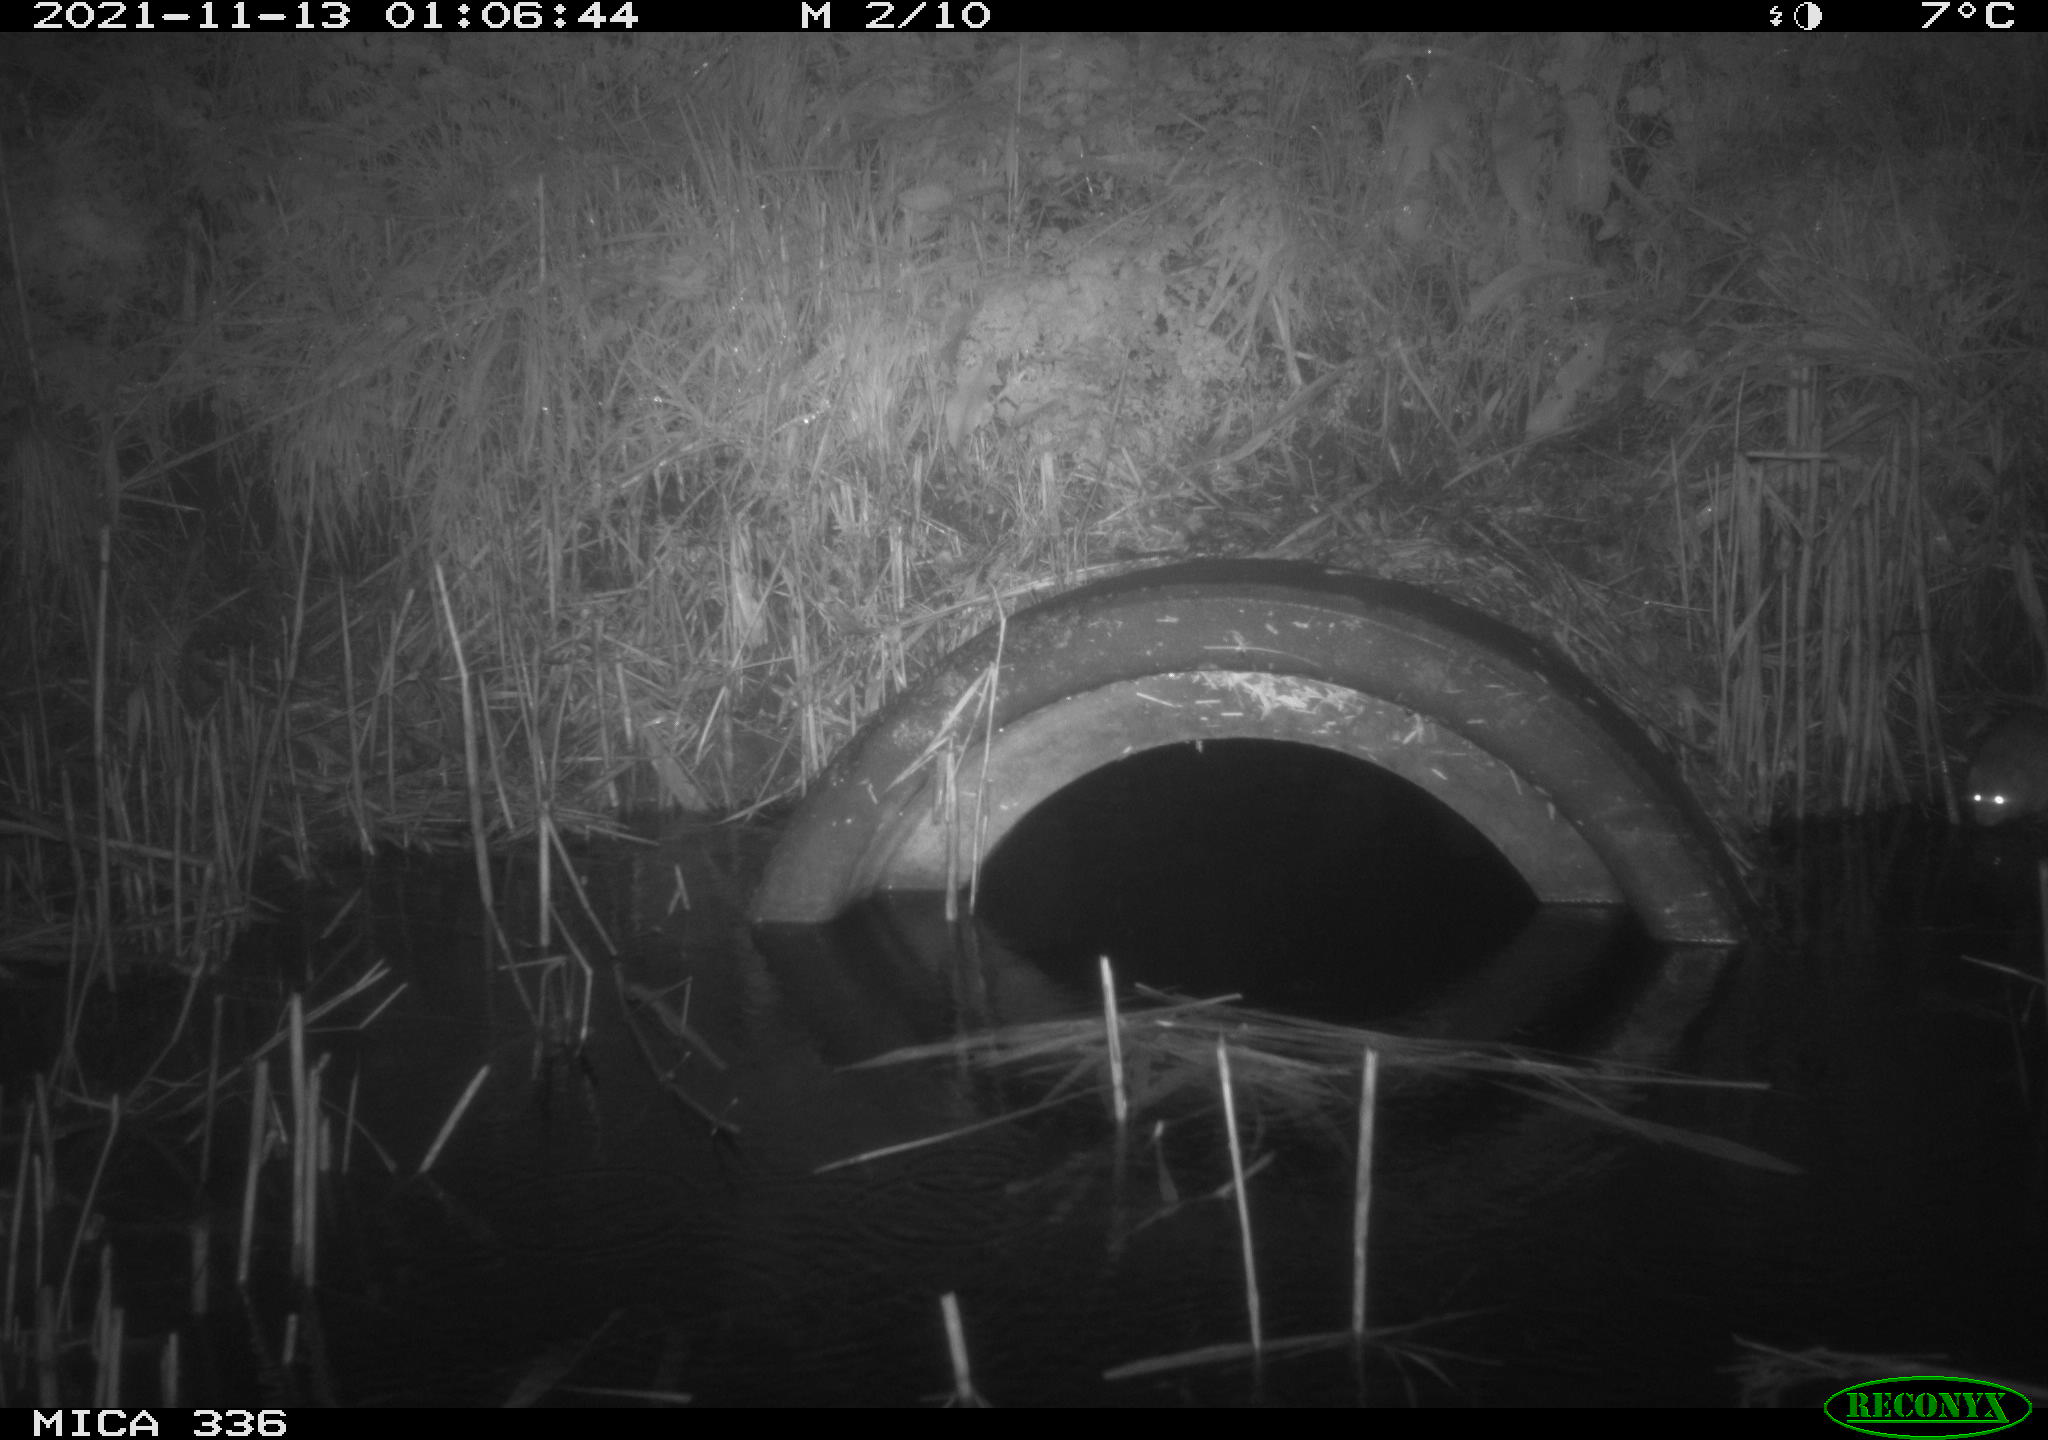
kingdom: Animalia
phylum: Chordata
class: Mammalia
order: Rodentia
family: Muridae
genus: Rattus
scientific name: Rattus norvegicus
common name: Brown rat
